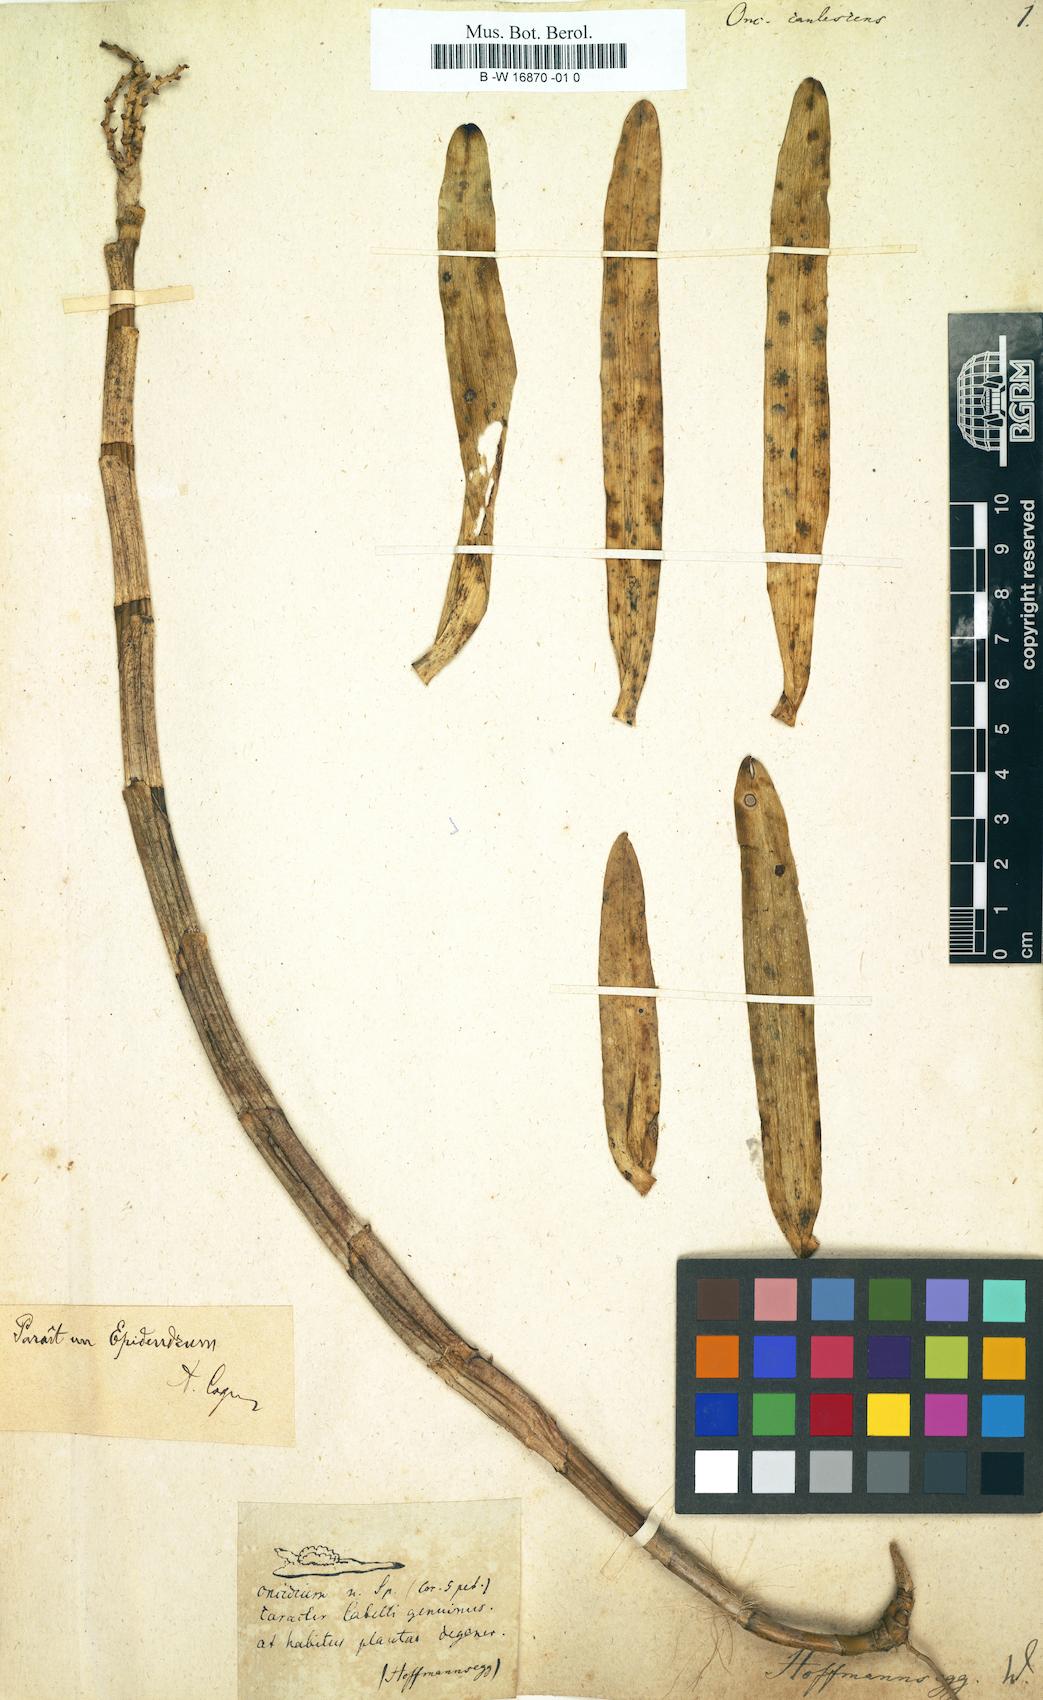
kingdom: Plantae
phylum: Tracheophyta
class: Liliopsida
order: Asparagales
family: Orchidaceae
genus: Oncidium
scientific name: Oncidium
